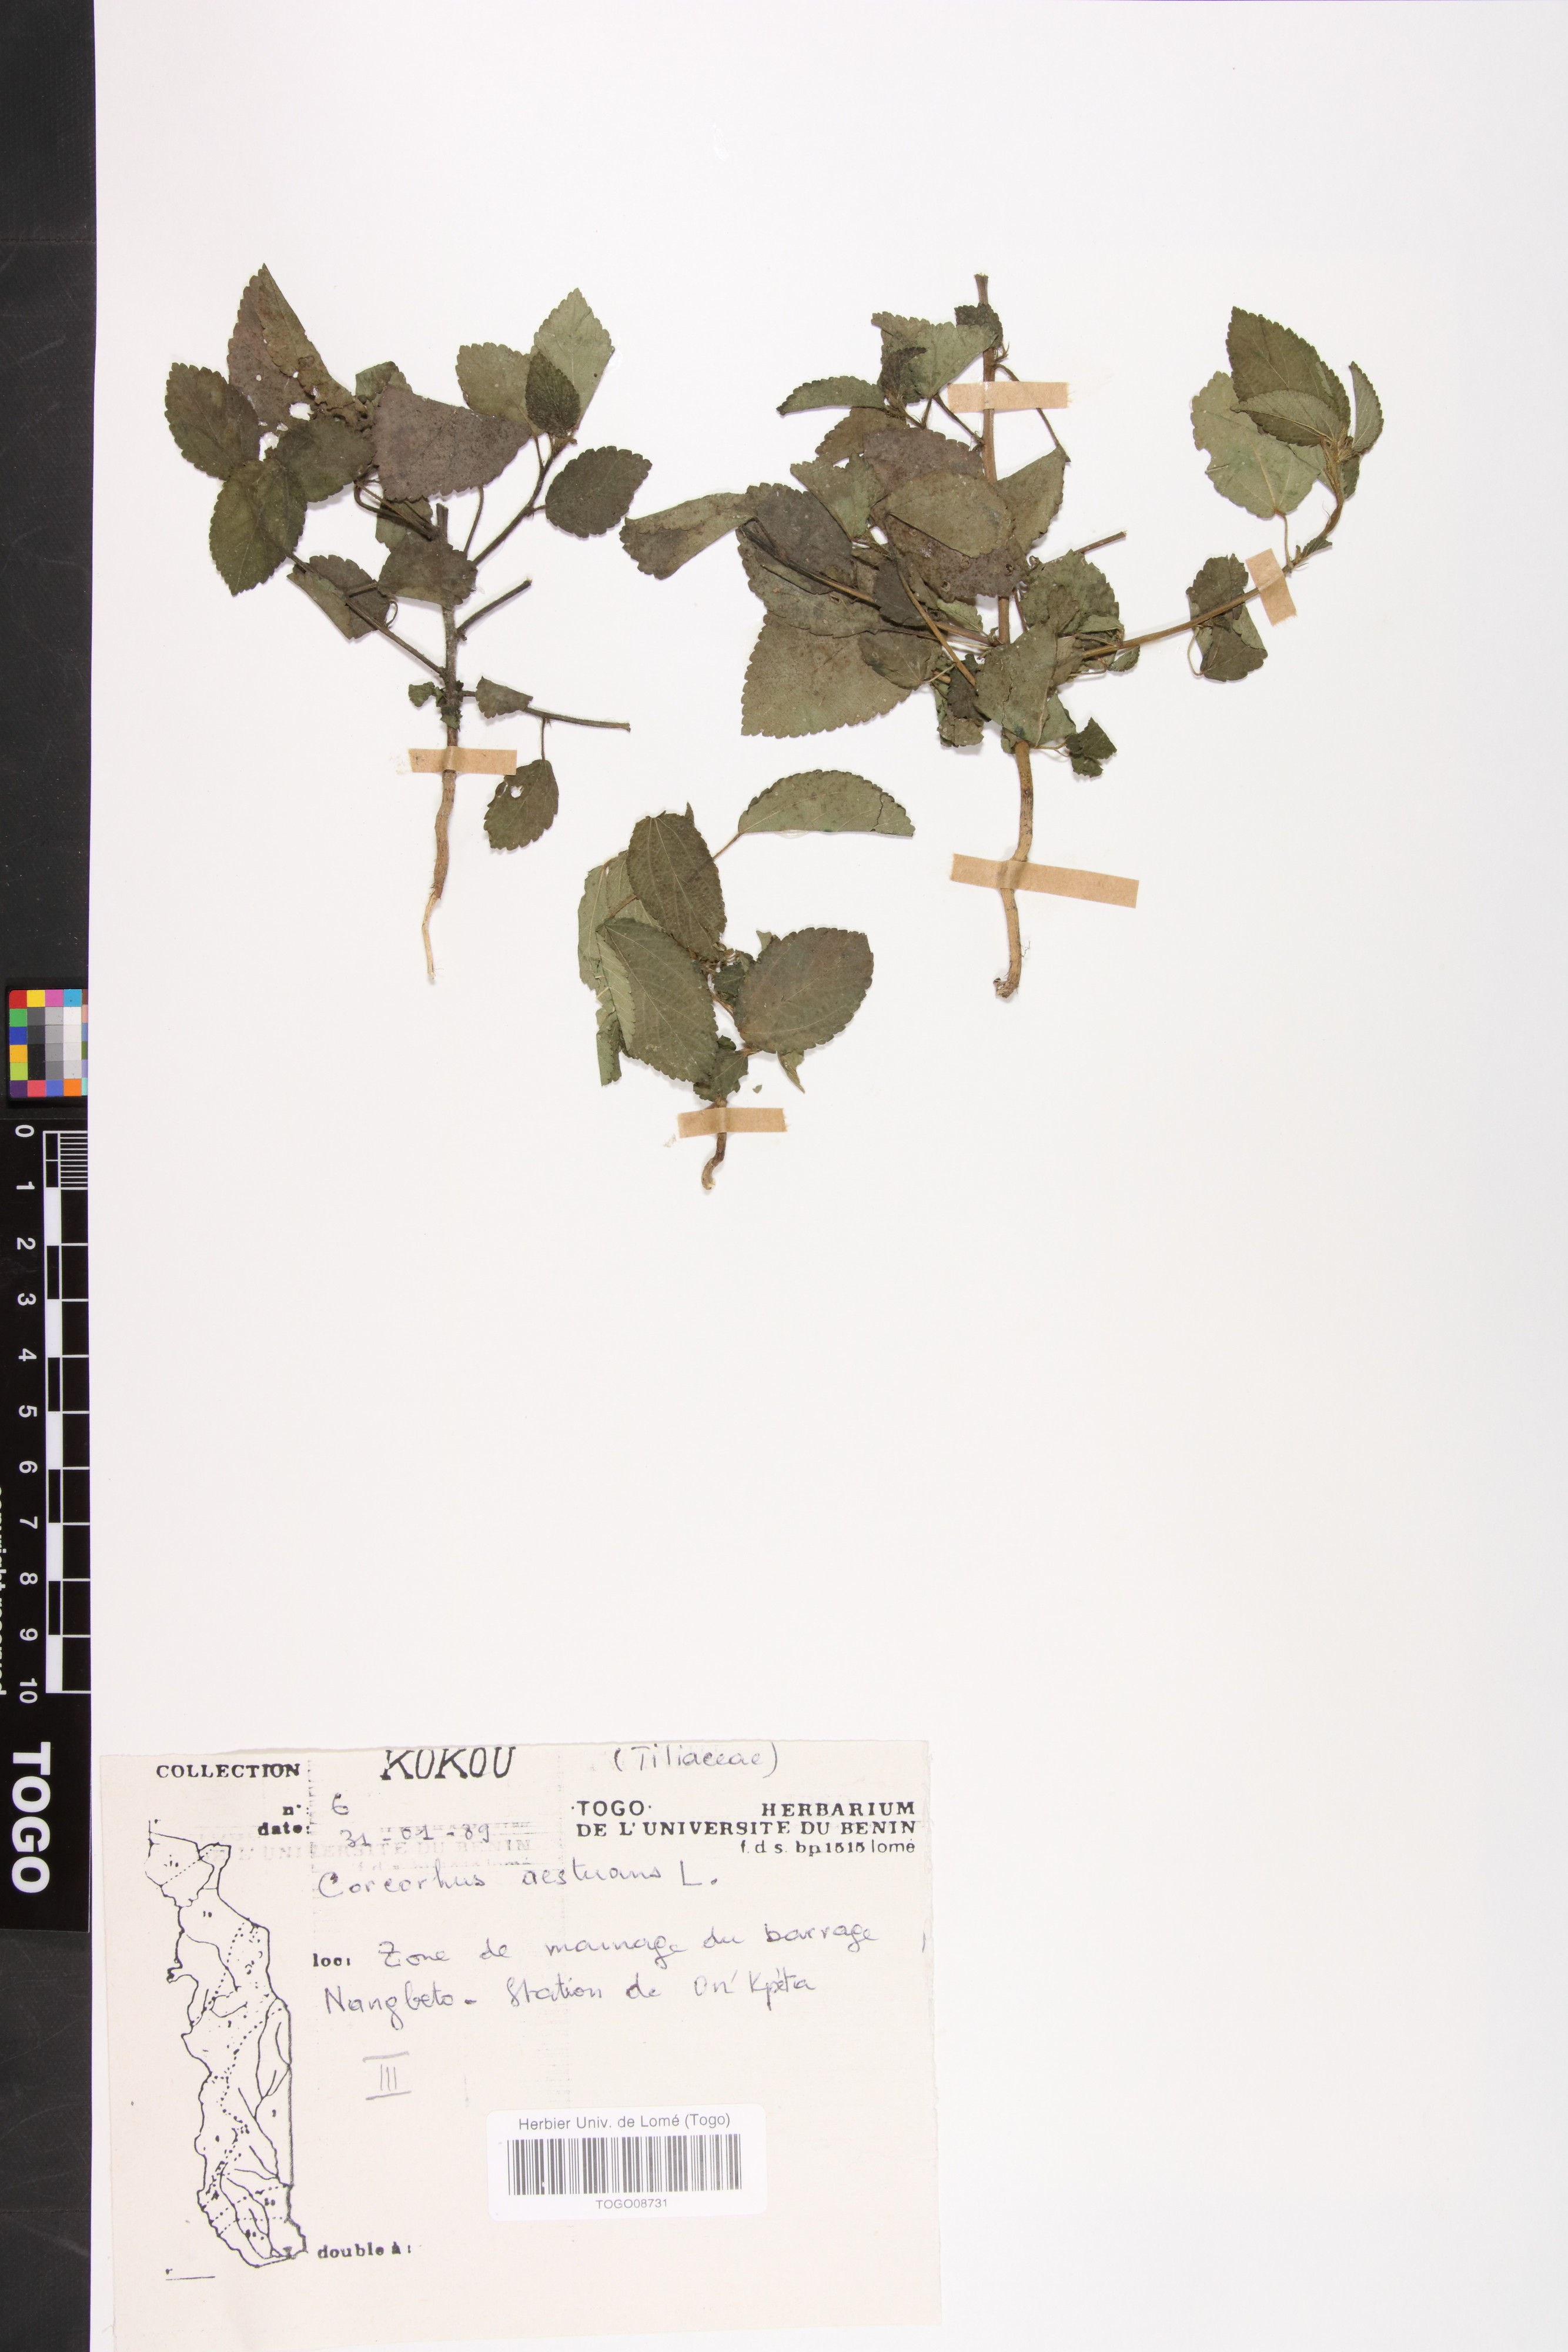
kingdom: Plantae
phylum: Tracheophyta
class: Magnoliopsida
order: Malvales
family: Malvaceae
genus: Corchorus
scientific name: Corchorus aestuans
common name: Jute
